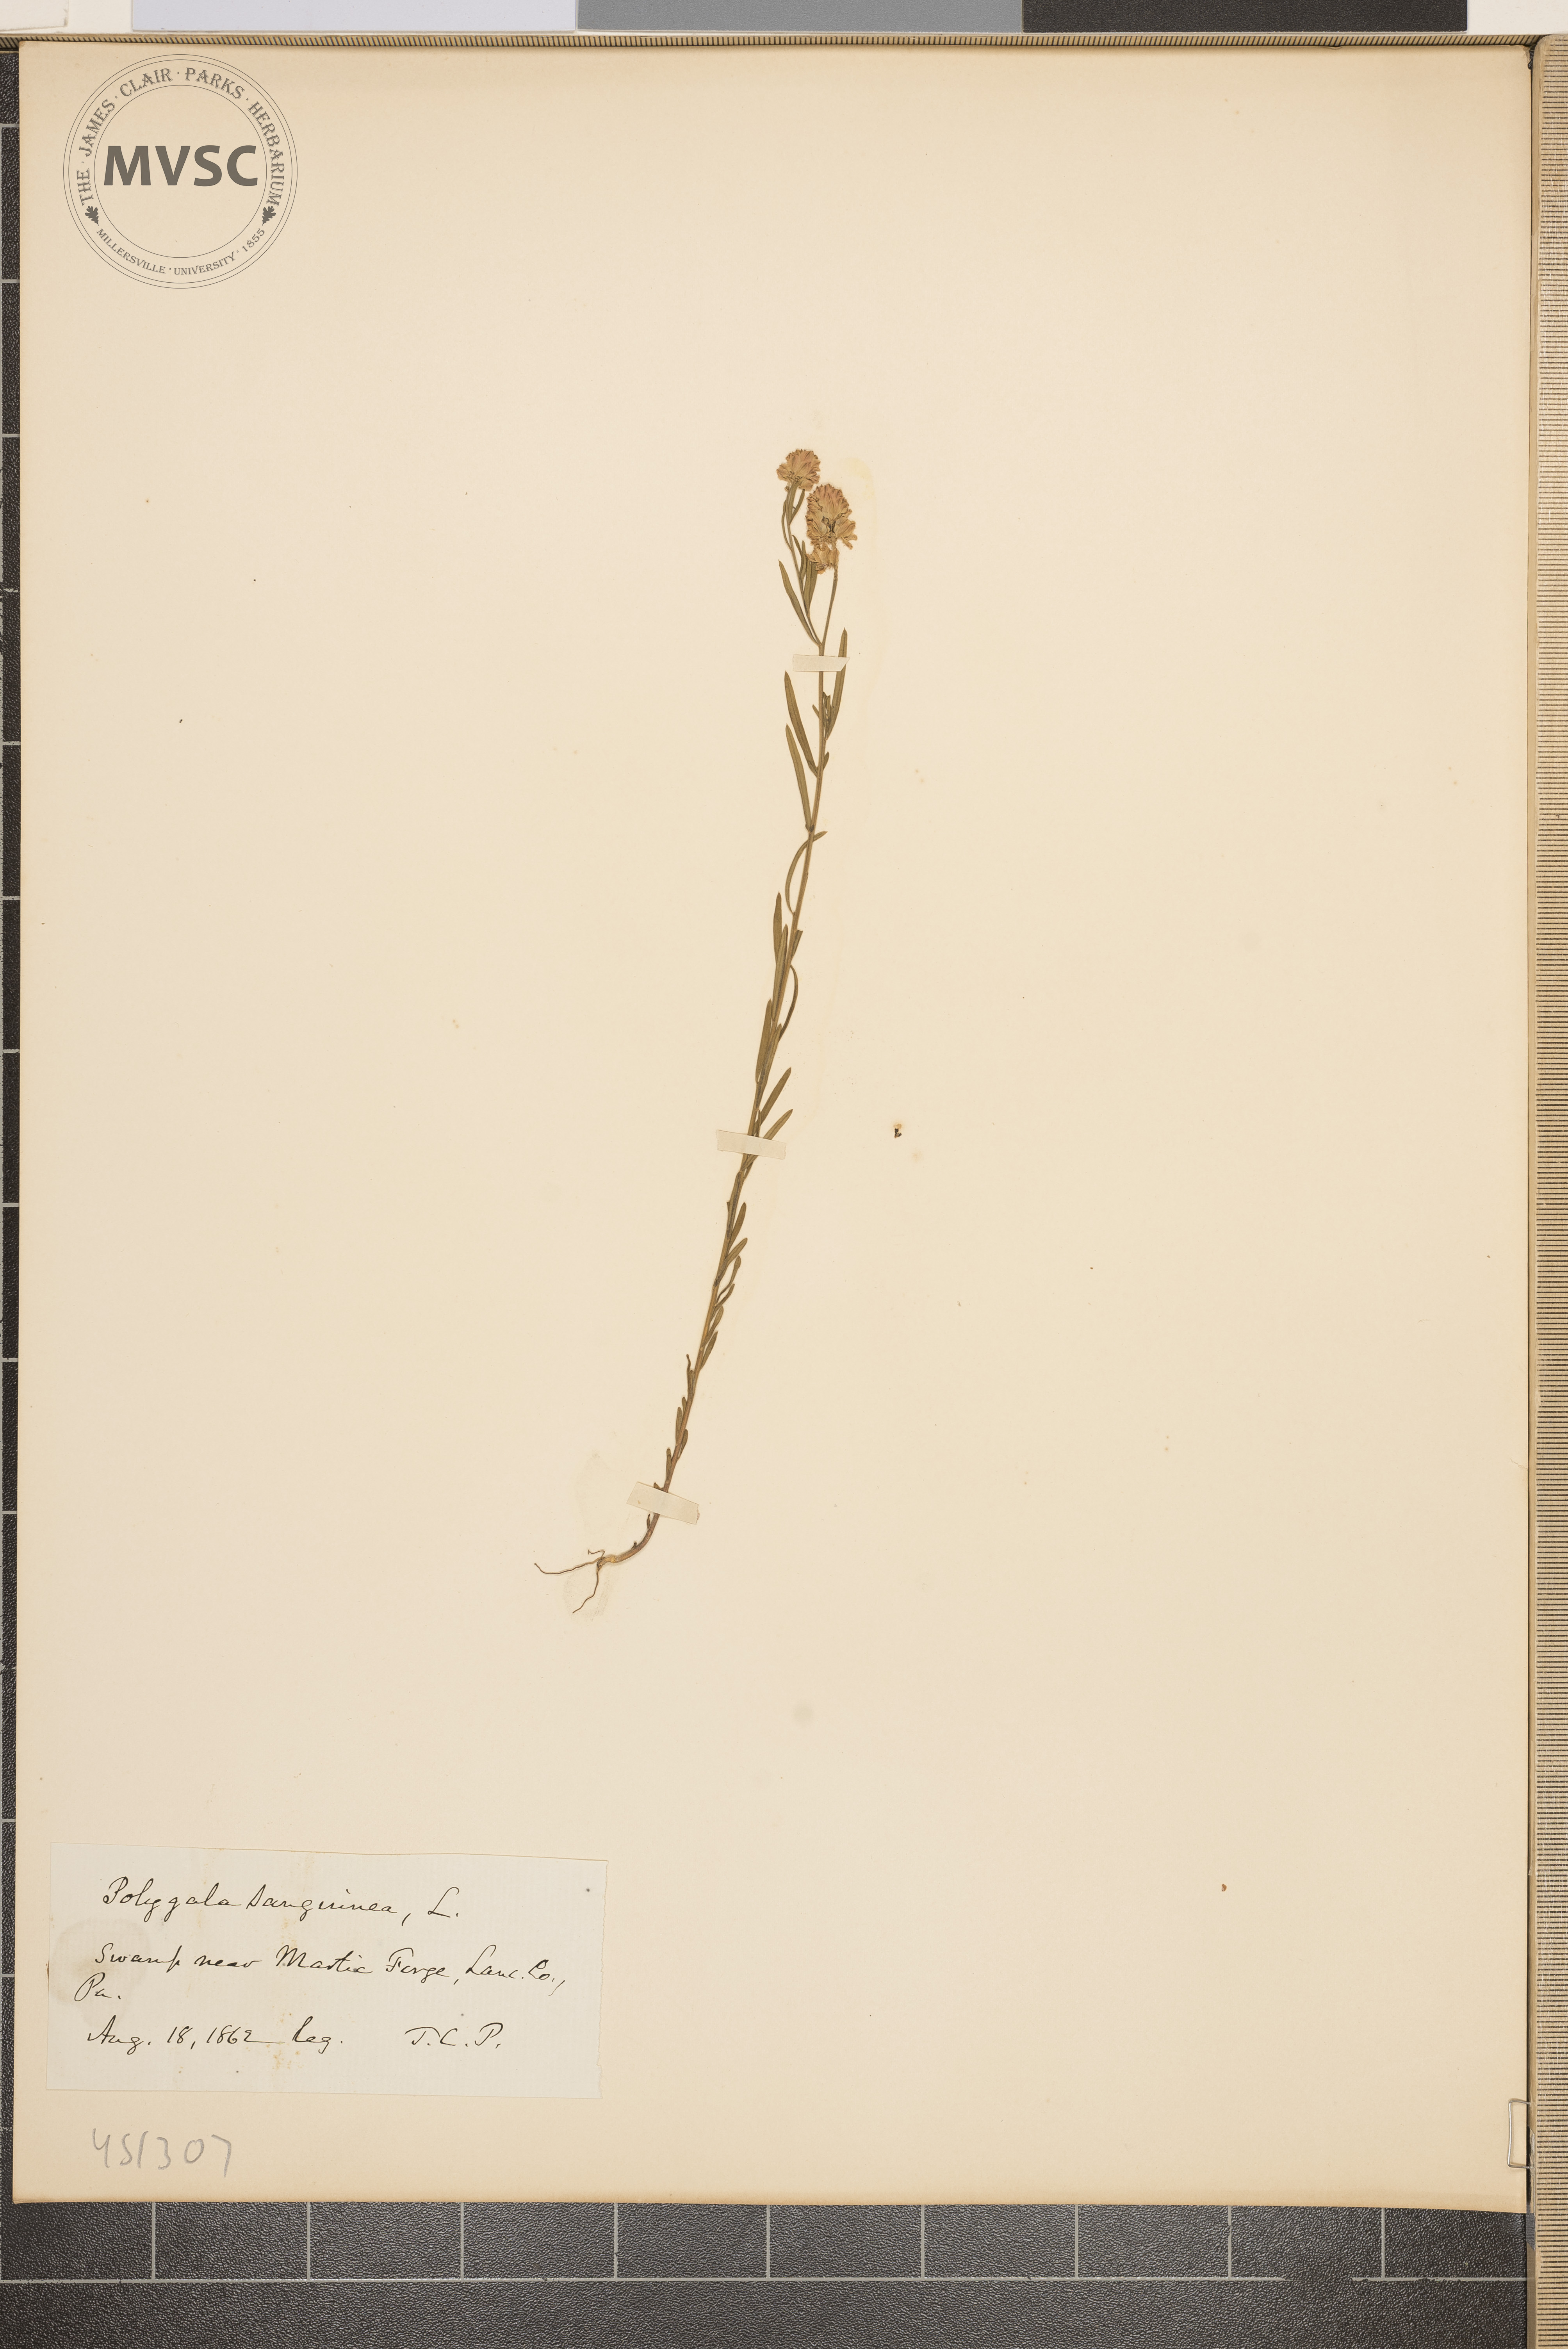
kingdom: Plantae
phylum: Tracheophyta
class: Magnoliopsida
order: Fabales
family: Polygalaceae
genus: Polygala
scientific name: Polygala sanguinea
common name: Blood milkwort
